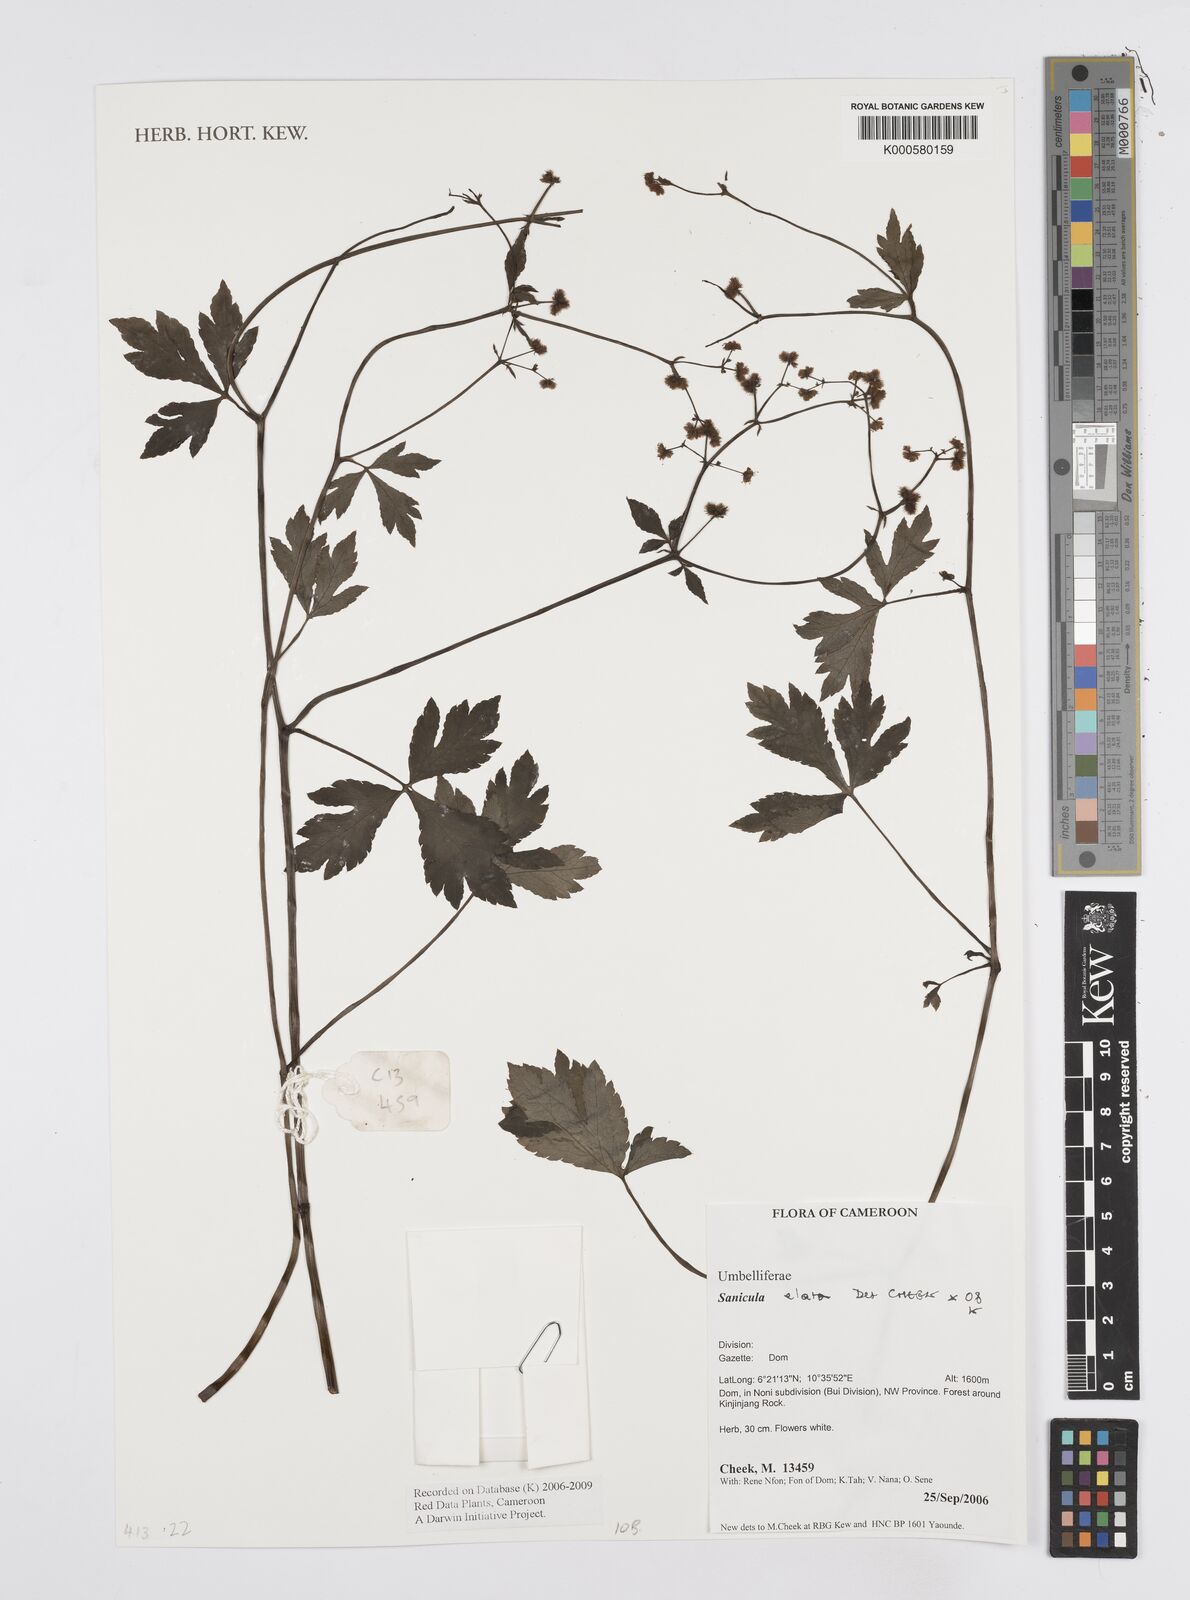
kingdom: Plantae
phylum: Tracheophyta
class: Magnoliopsida
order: Apiales
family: Apiaceae
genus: Sanicula
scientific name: Sanicula
